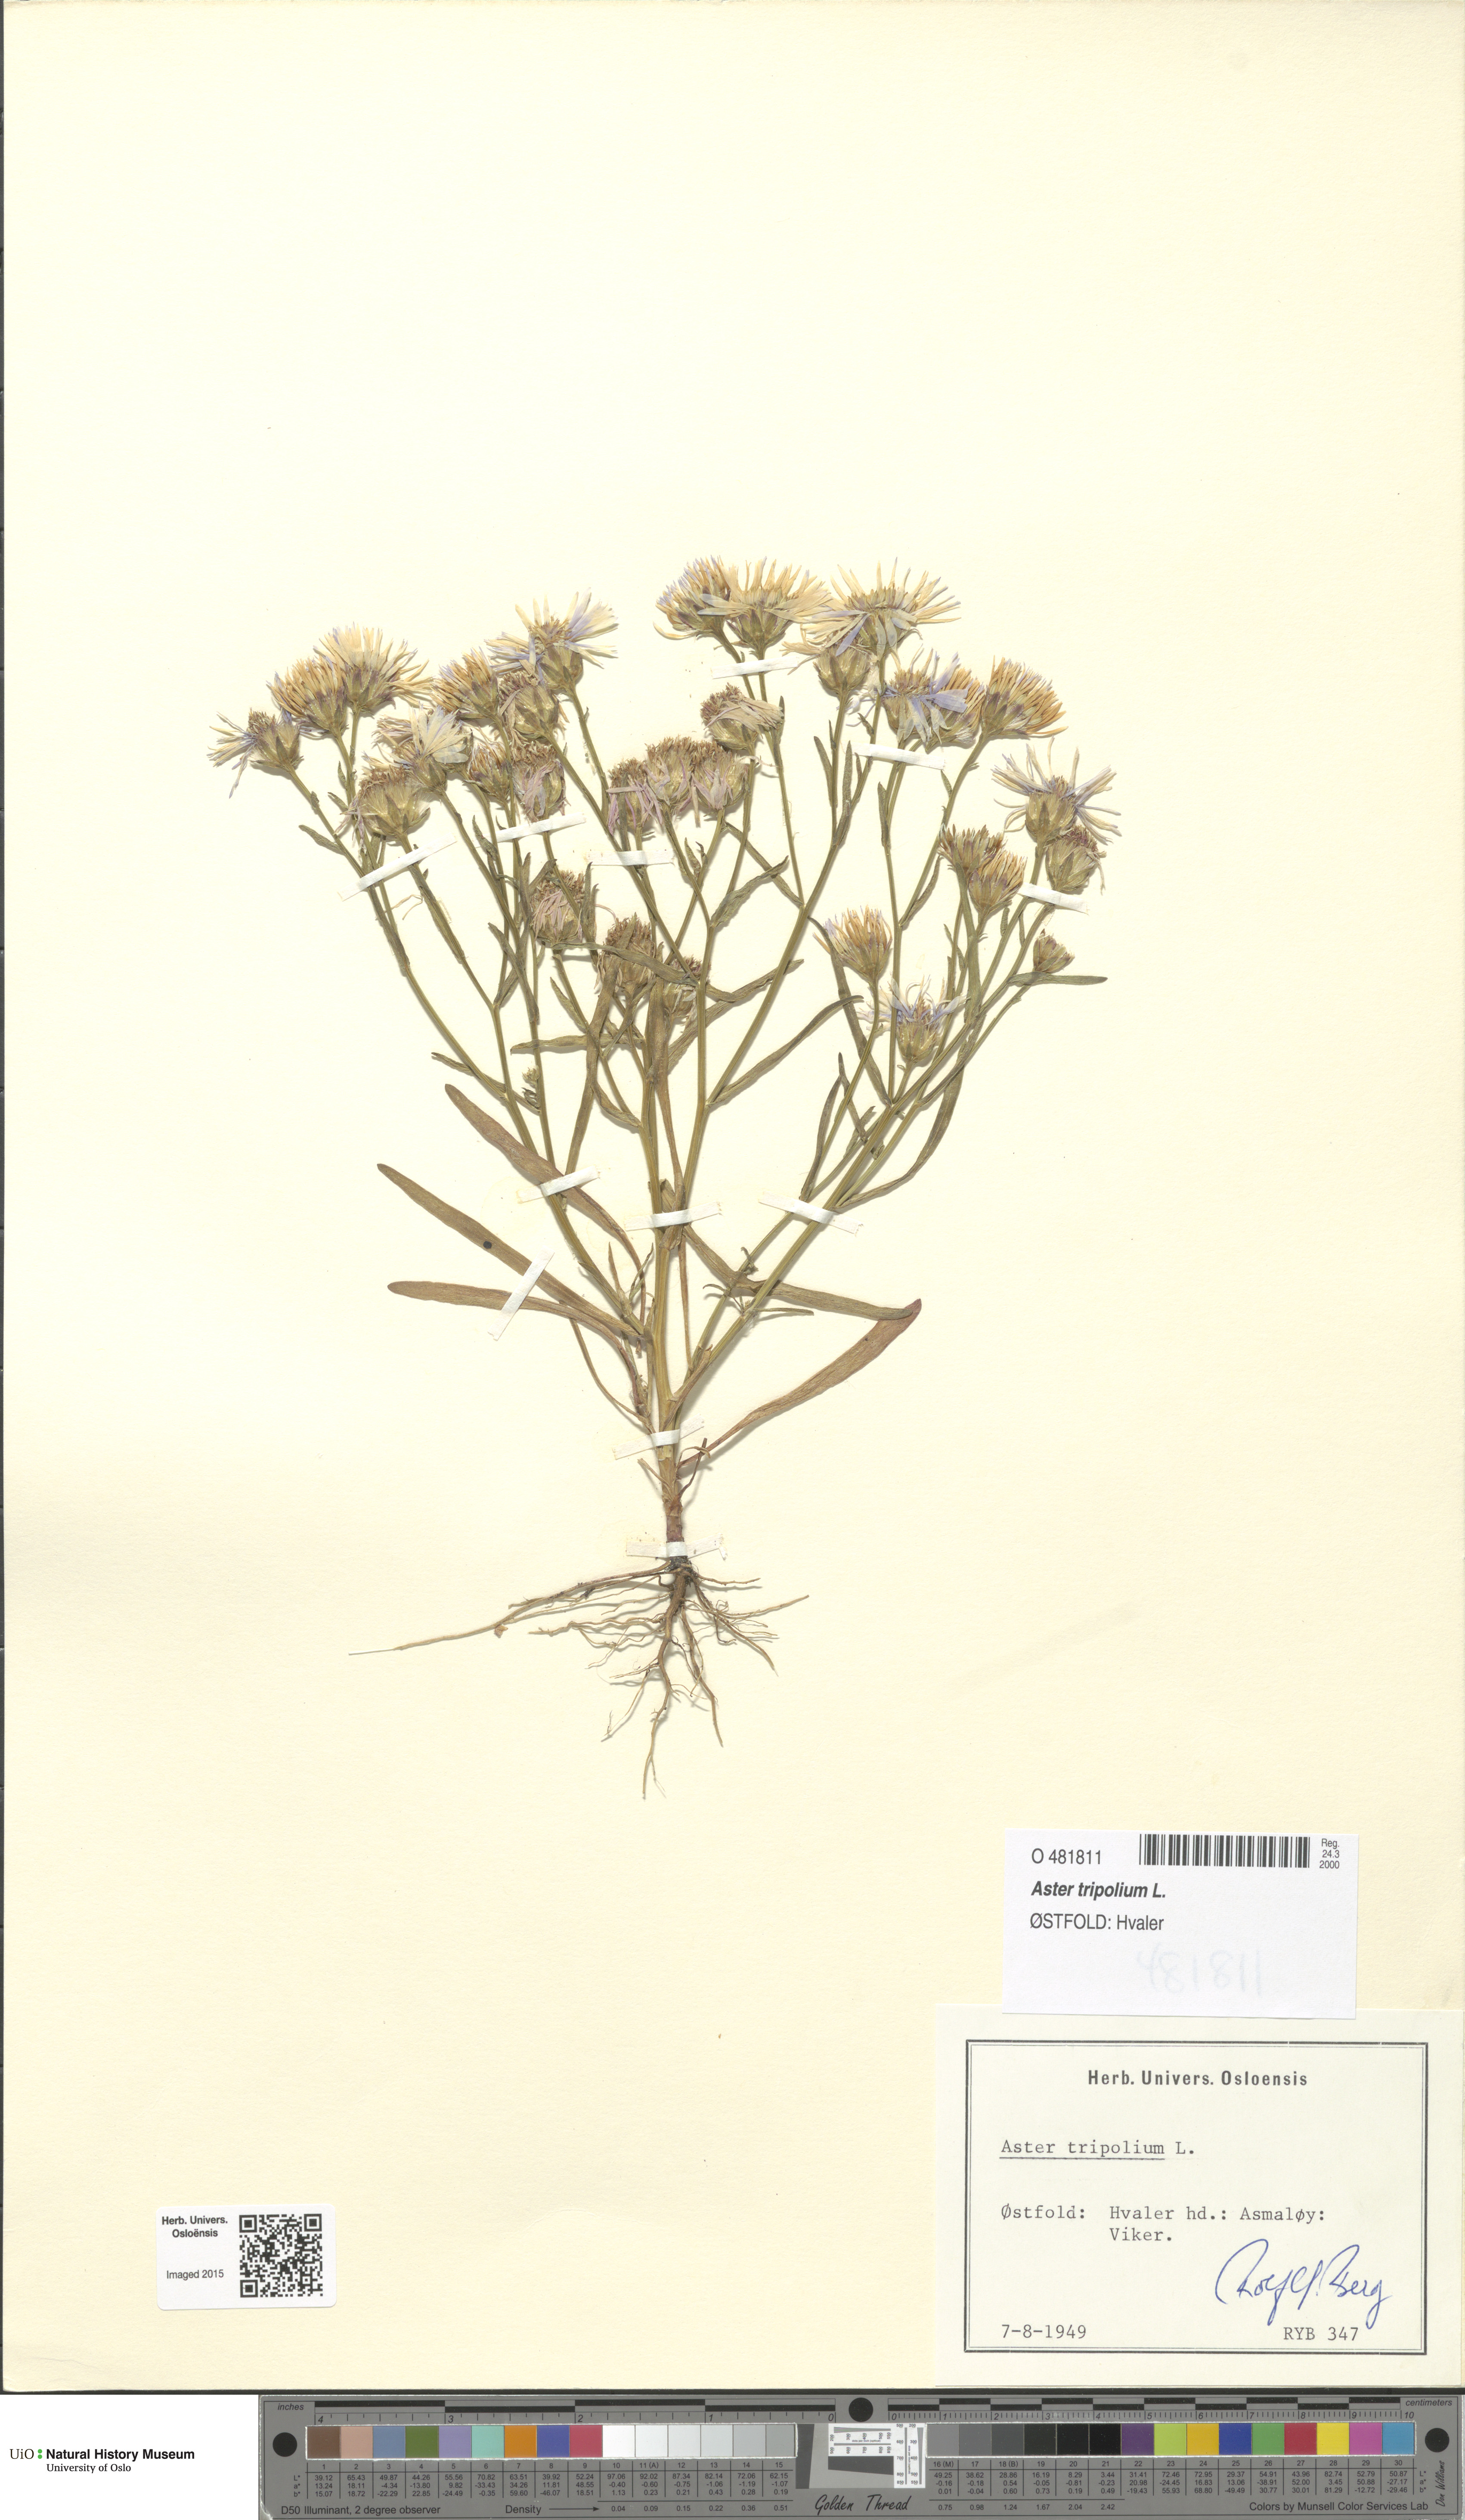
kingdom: Plantae
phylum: Tracheophyta
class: Magnoliopsida
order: Asterales
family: Asteraceae
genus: Tripolium
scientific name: Tripolium pannonicum
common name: Sea aster
